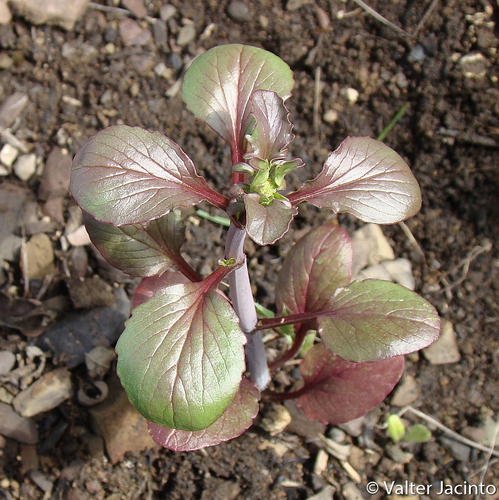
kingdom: Plantae
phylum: Tracheophyta
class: Magnoliopsida
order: Dipsacales
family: Caprifoliaceae
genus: Centranthus
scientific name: Centranthus calcitrapae
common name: Annual valerian
